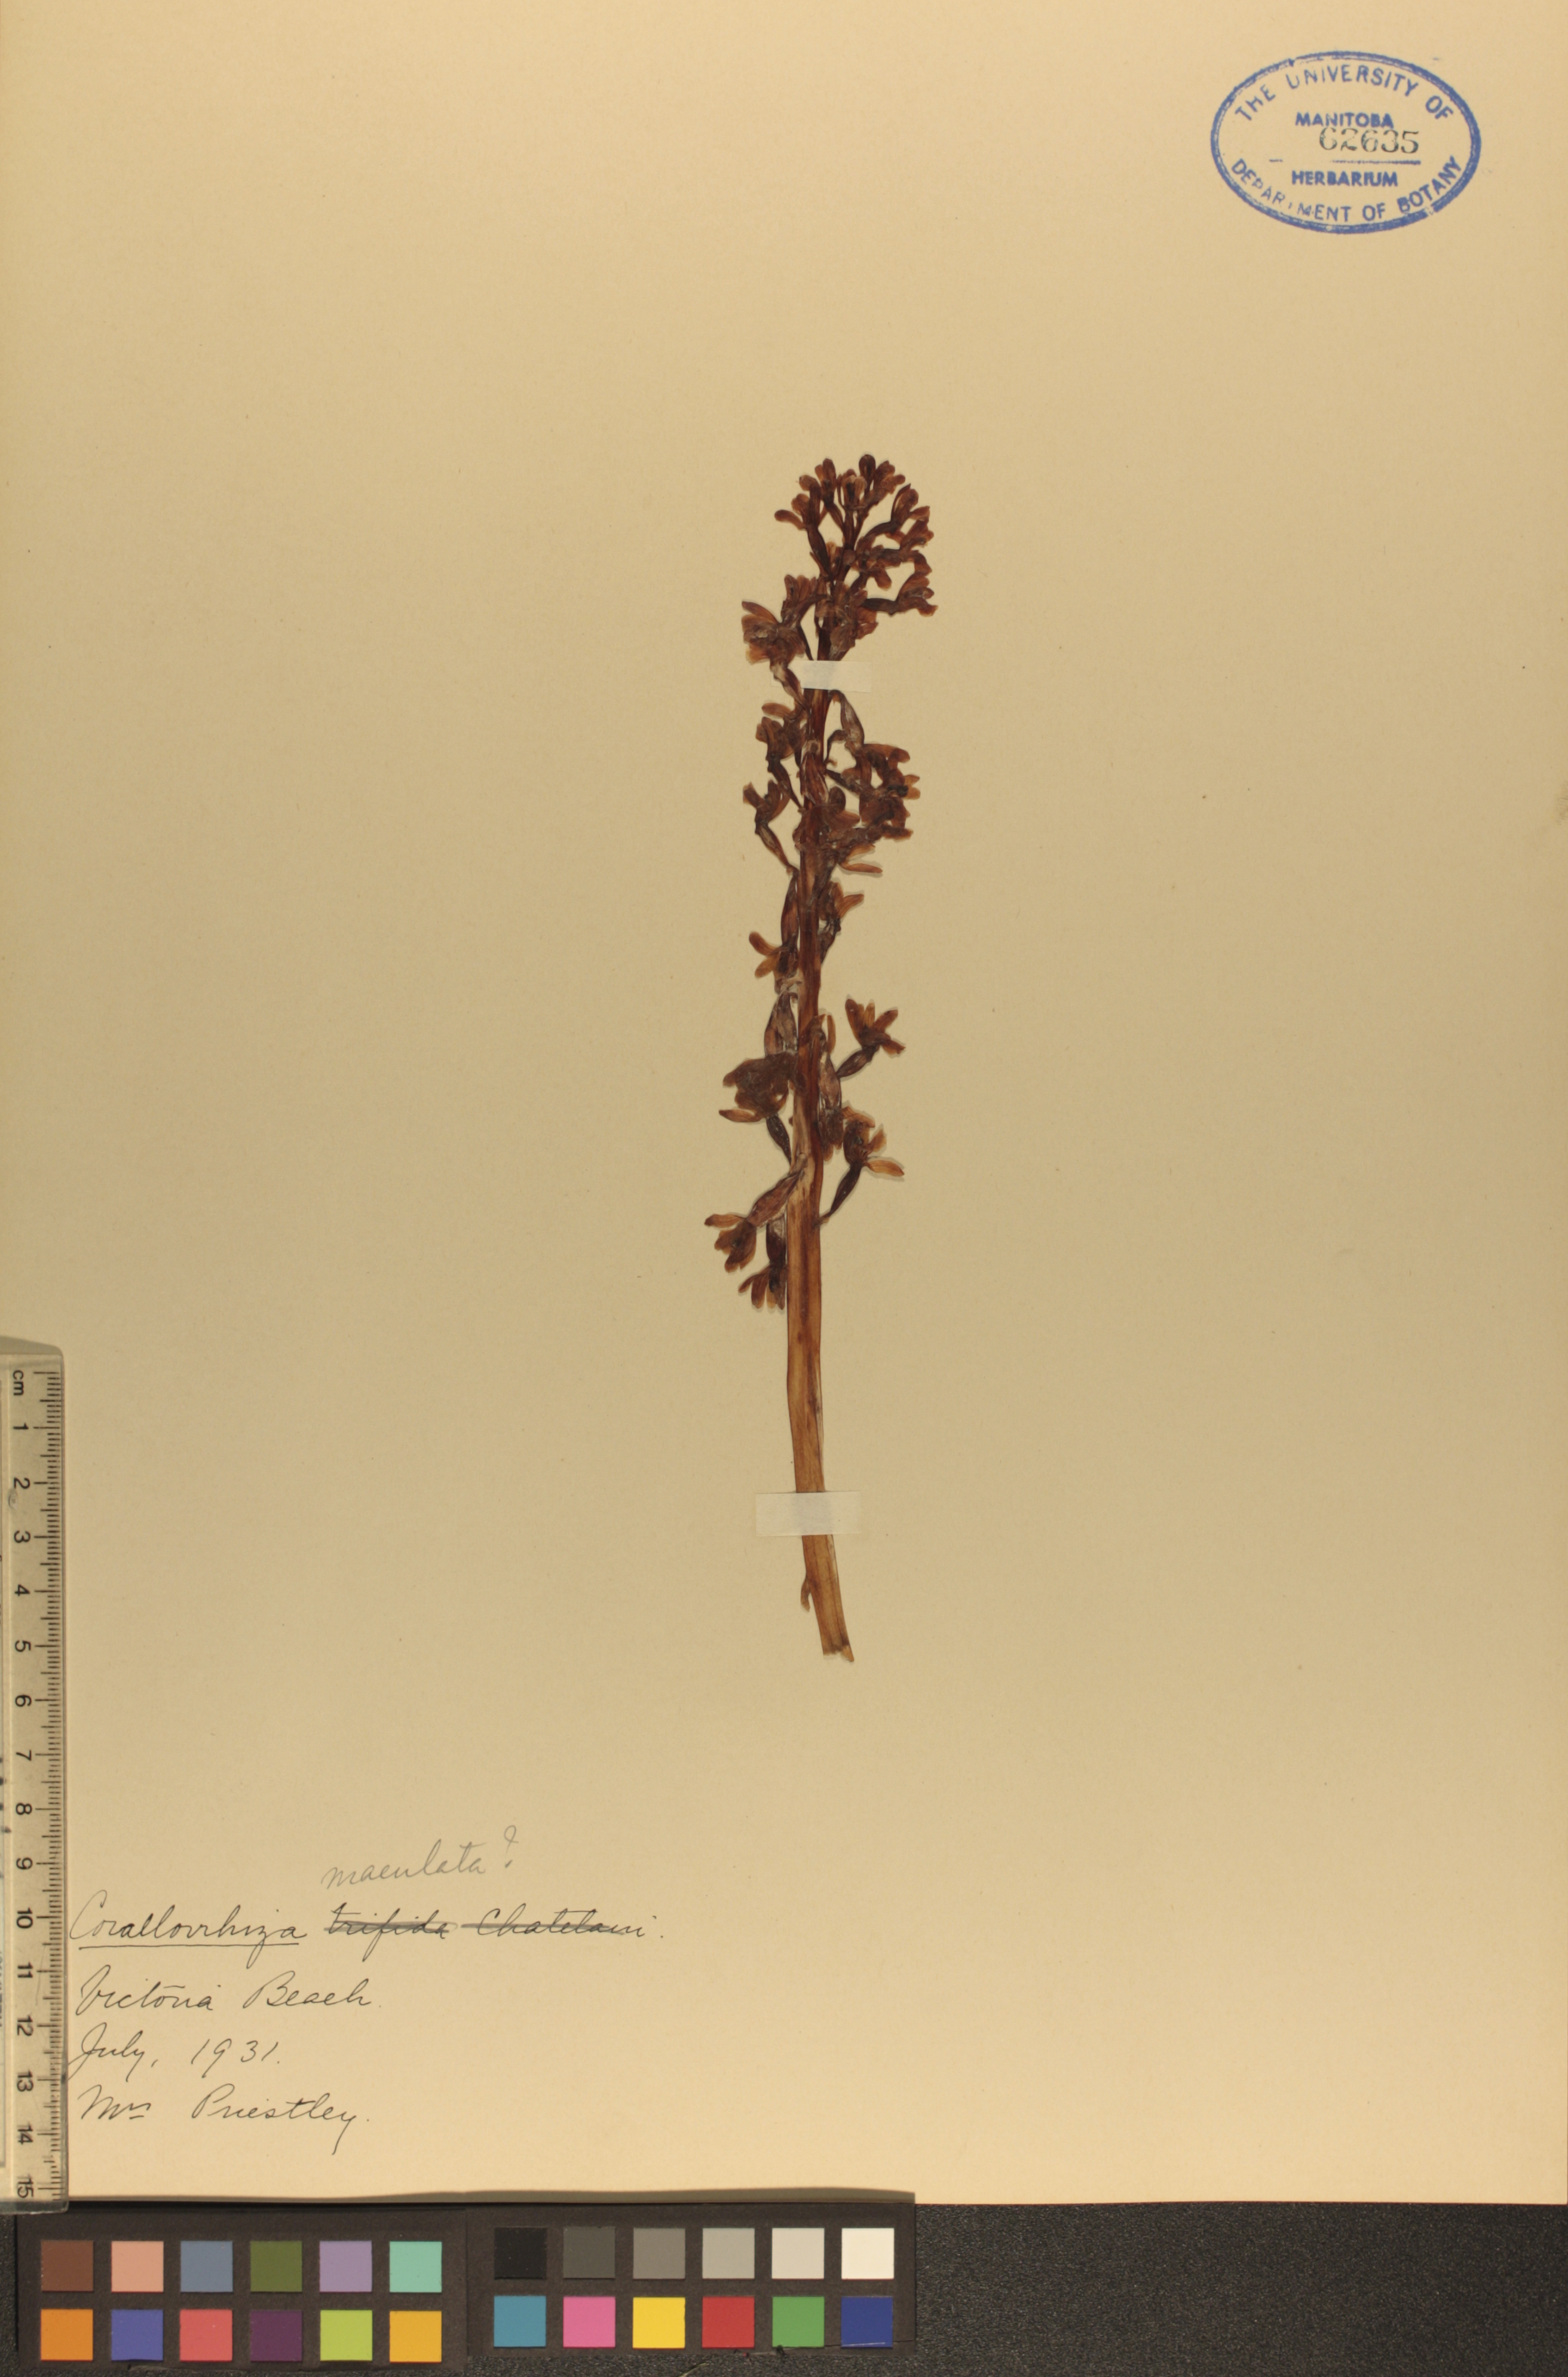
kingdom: Plantae
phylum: Tracheophyta
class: Liliopsida
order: Asparagales
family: Orchidaceae
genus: Corallorhiza
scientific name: Corallorhiza maculata
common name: Spotted coralroot
